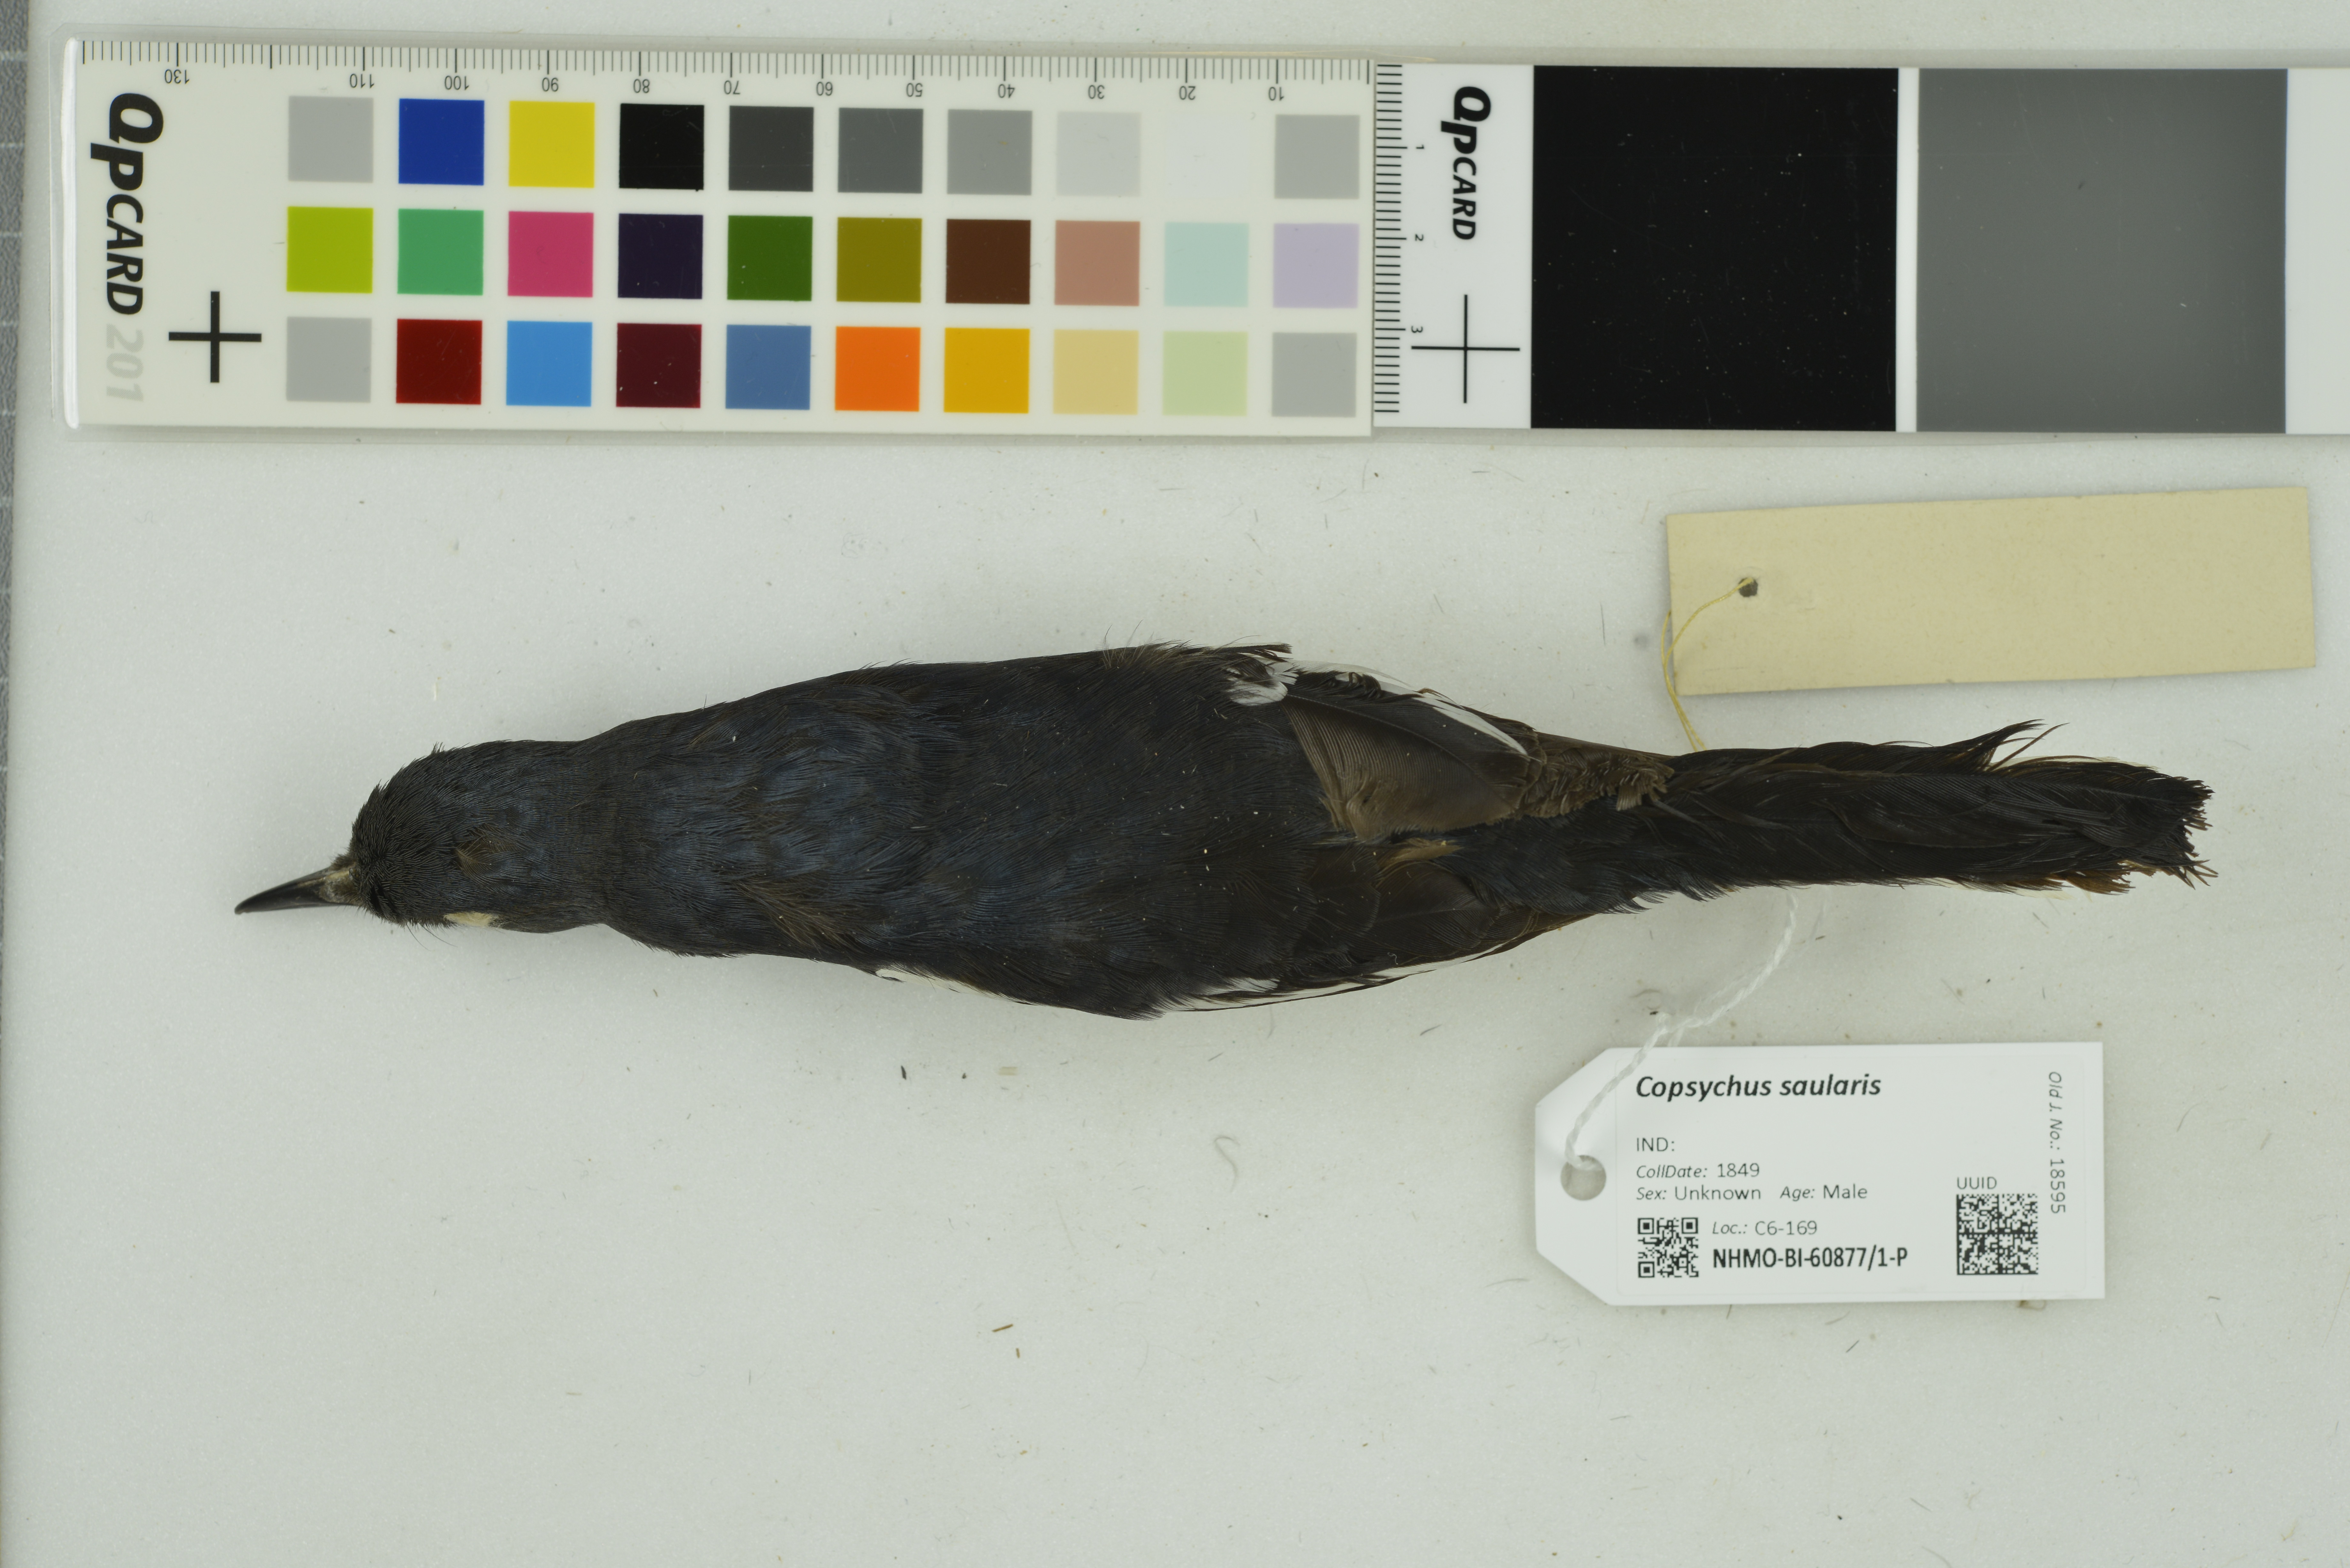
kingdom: Animalia
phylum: Chordata
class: Aves
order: Passeriformes
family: Muscicapidae
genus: Copsychus
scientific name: Copsychus saularis
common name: Oriental magpie-robin
